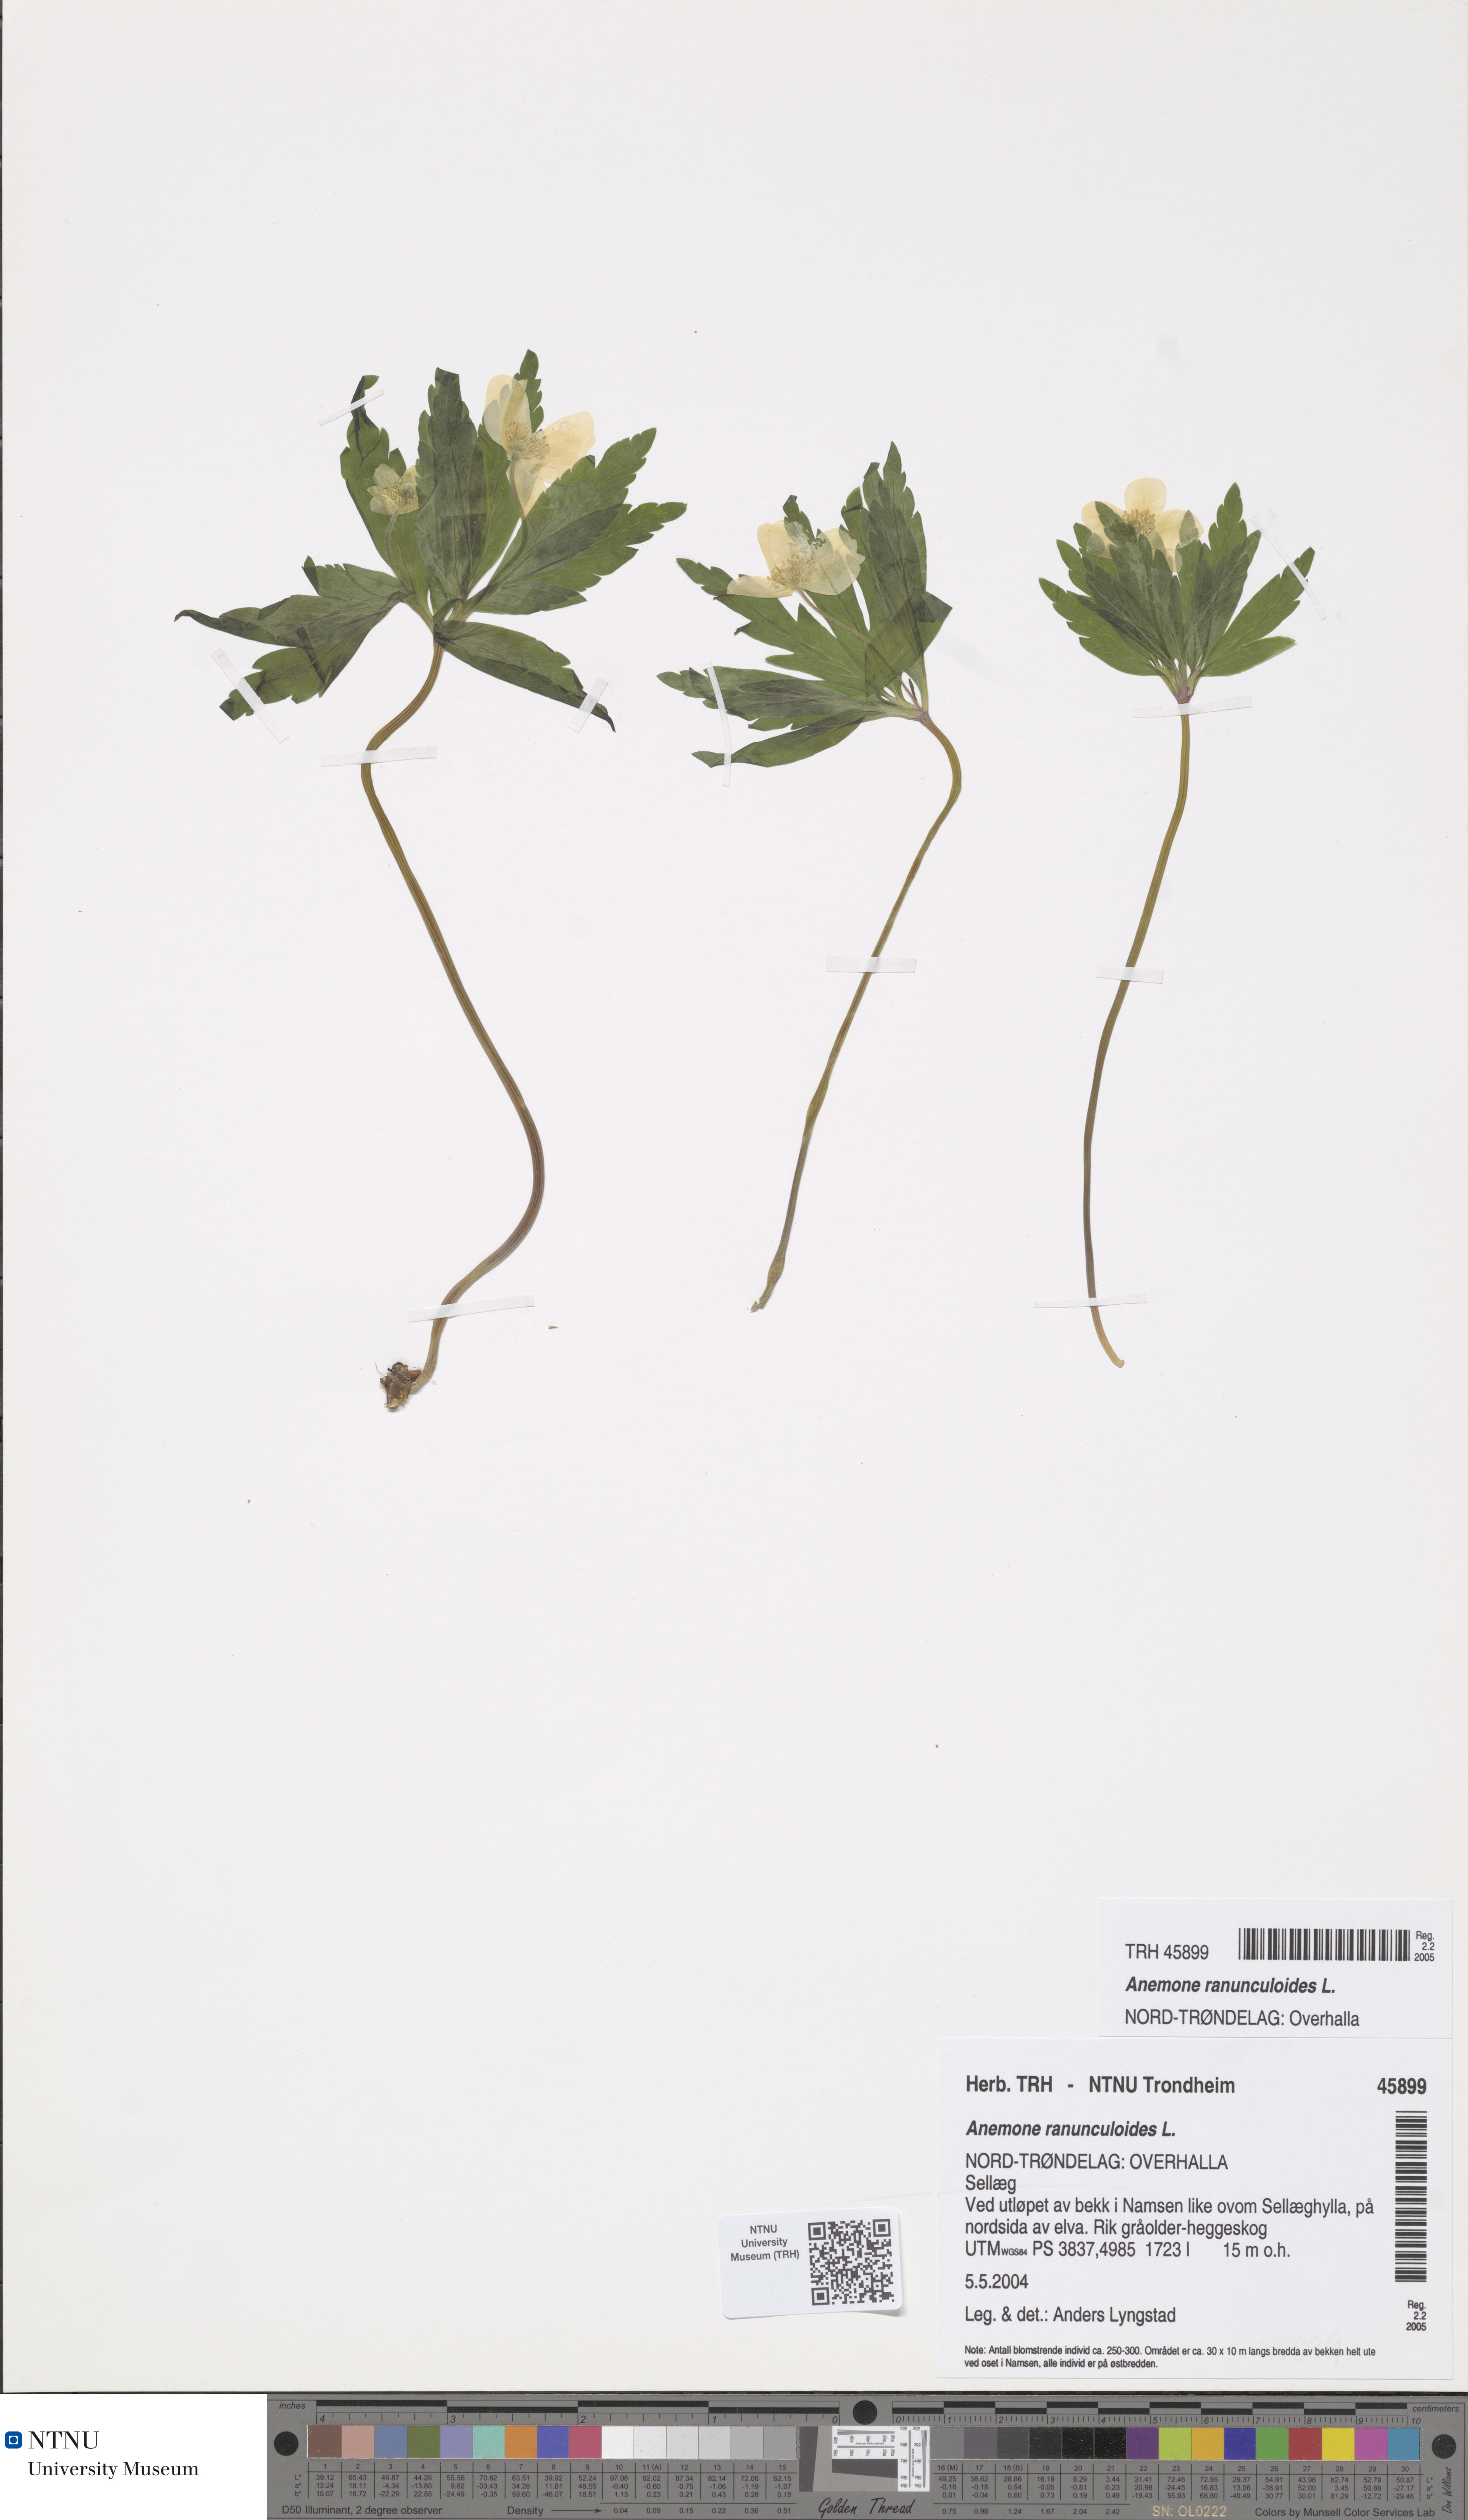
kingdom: Plantae
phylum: Tracheophyta
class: Magnoliopsida
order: Ranunculales
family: Ranunculaceae
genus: Anemone
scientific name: Anemone ranunculoides
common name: Yellow anemone
